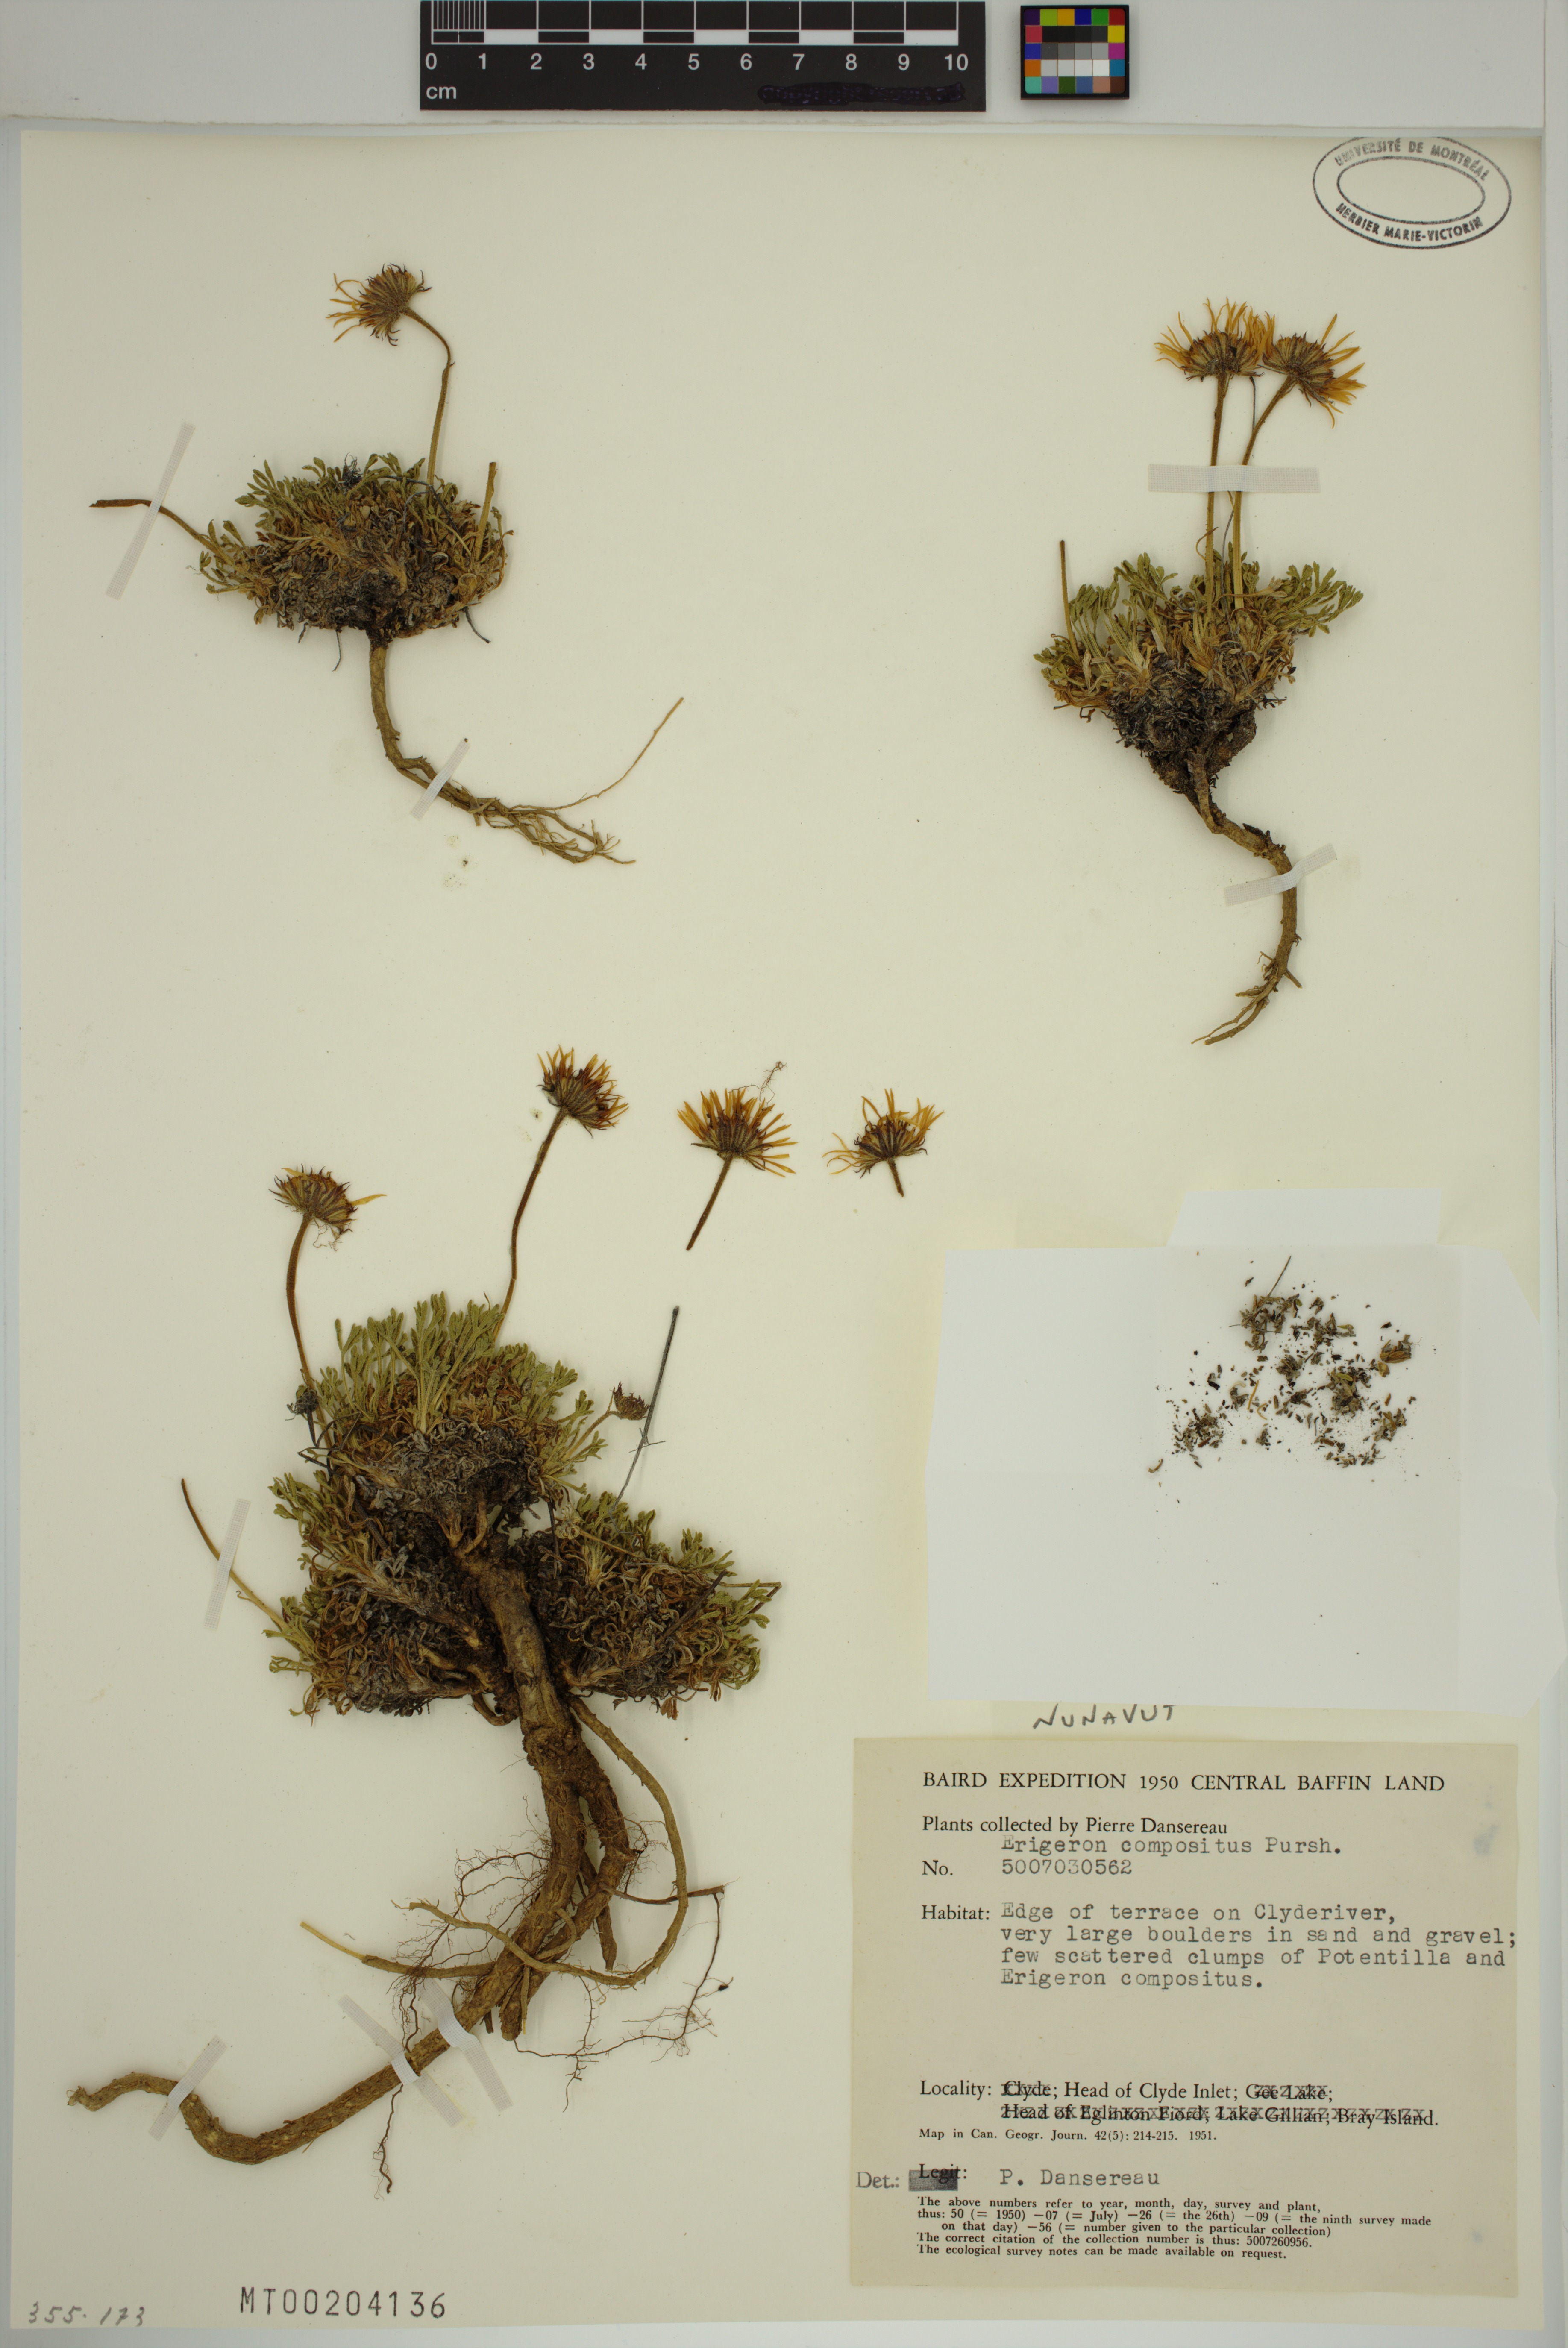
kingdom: Plantae
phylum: Tracheophyta
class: Magnoliopsida
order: Asterales
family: Asteraceae
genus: Erigeron
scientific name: Erigeron compositus
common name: Dwarf mountain fleabane
